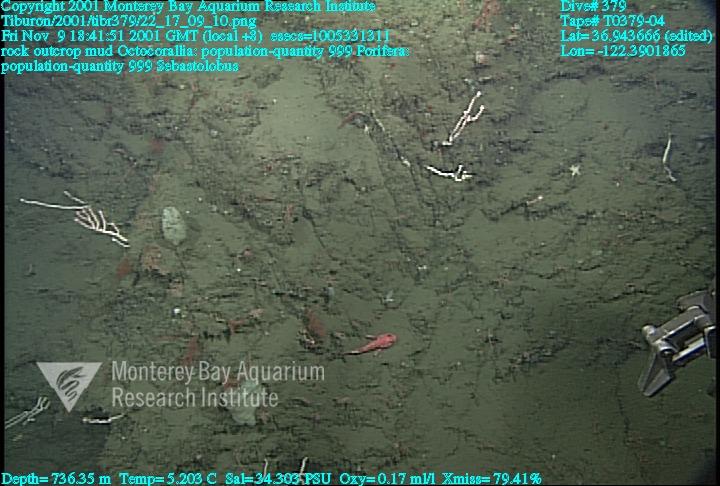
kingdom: Animalia
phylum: Porifera
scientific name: Porifera
